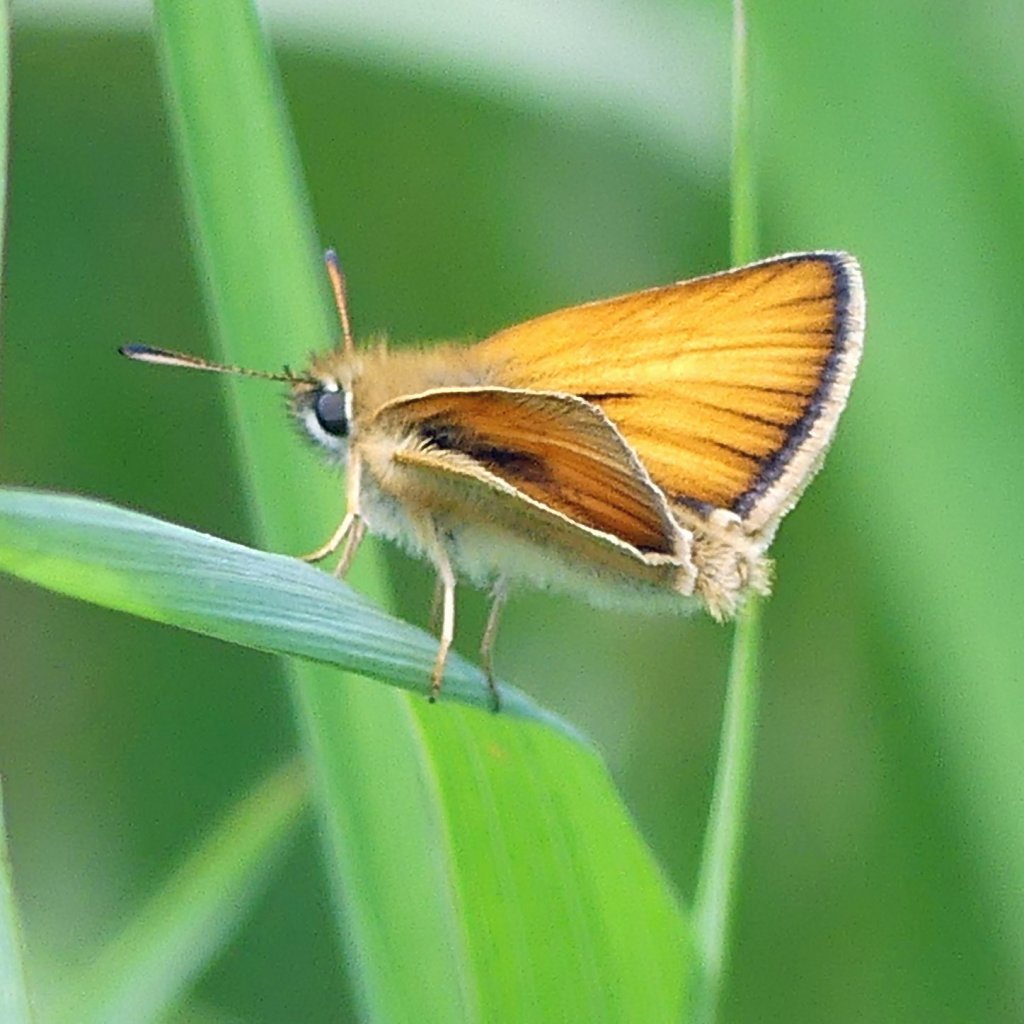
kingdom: Animalia
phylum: Arthropoda
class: Insecta
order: Lepidoptera
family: Hesperiidae
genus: Thymelicus
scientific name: Thymelicus lineola
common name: European Skipper
